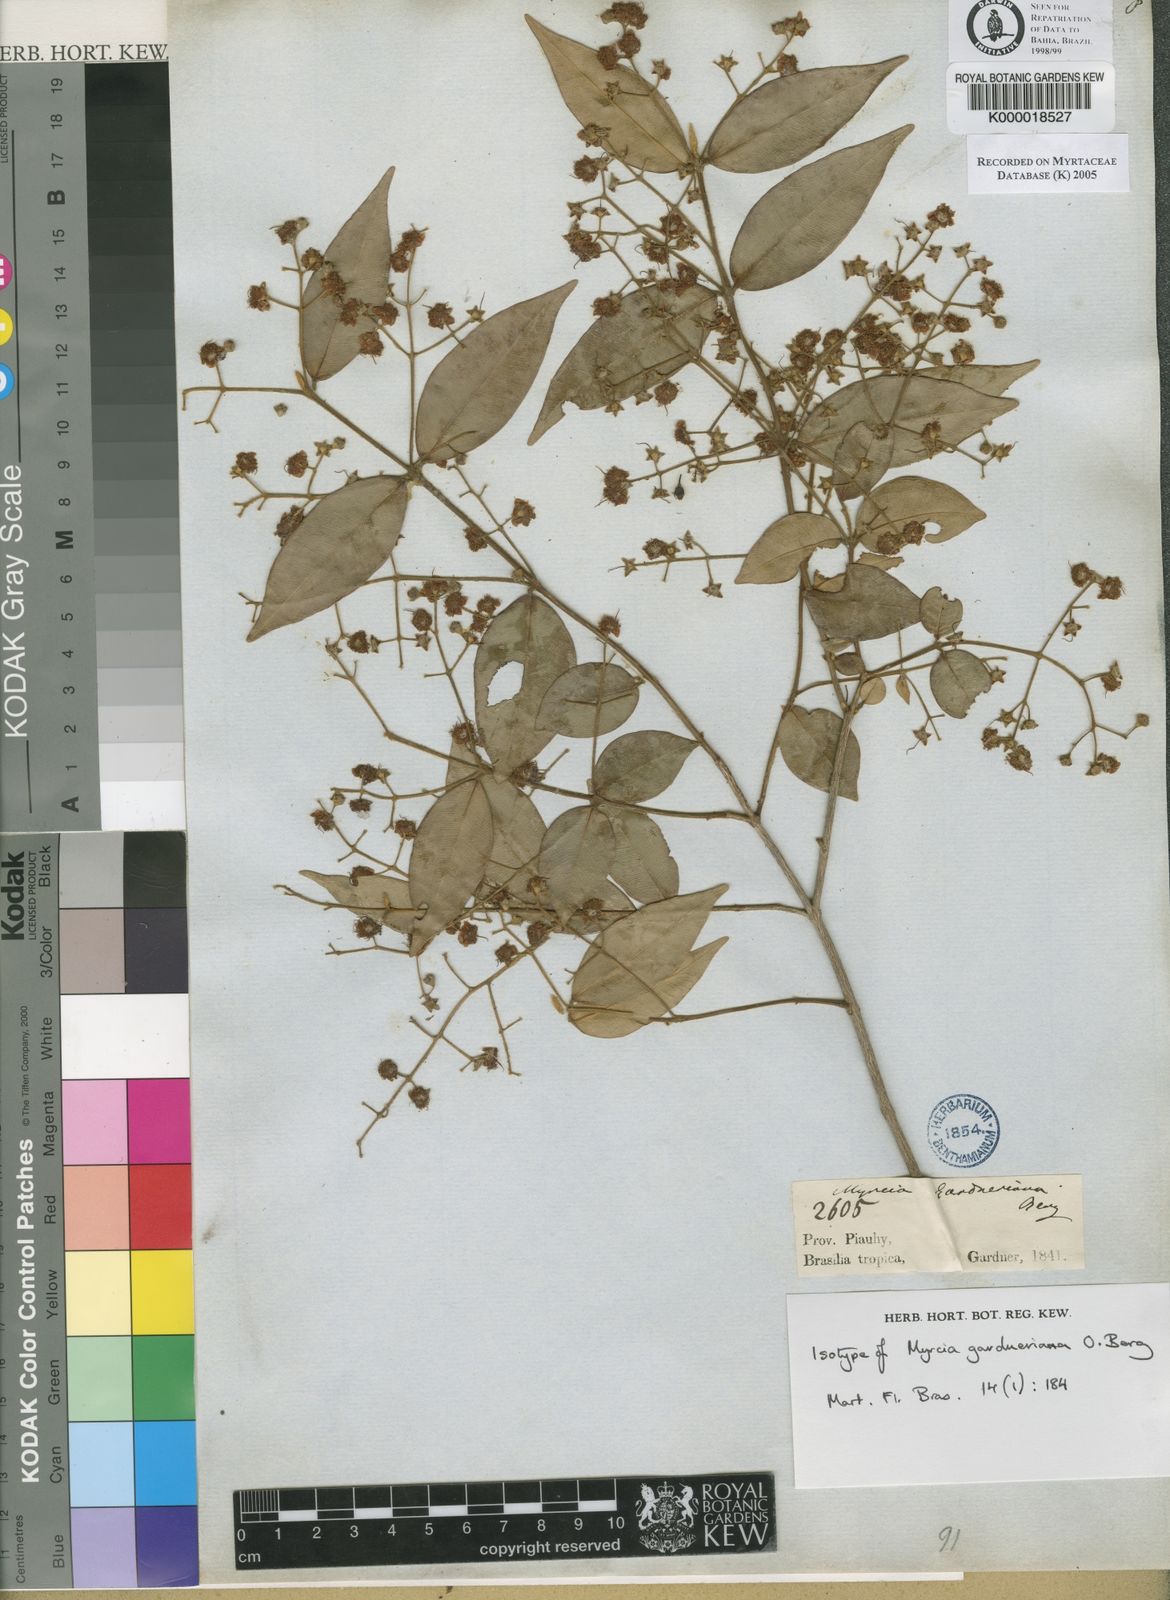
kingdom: Plantae
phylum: Tracheophyta
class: Magnoliopsida
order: Myrtales
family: Myrtaceae
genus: Myrcia
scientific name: Myrcia splendens
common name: Surinam cherry
